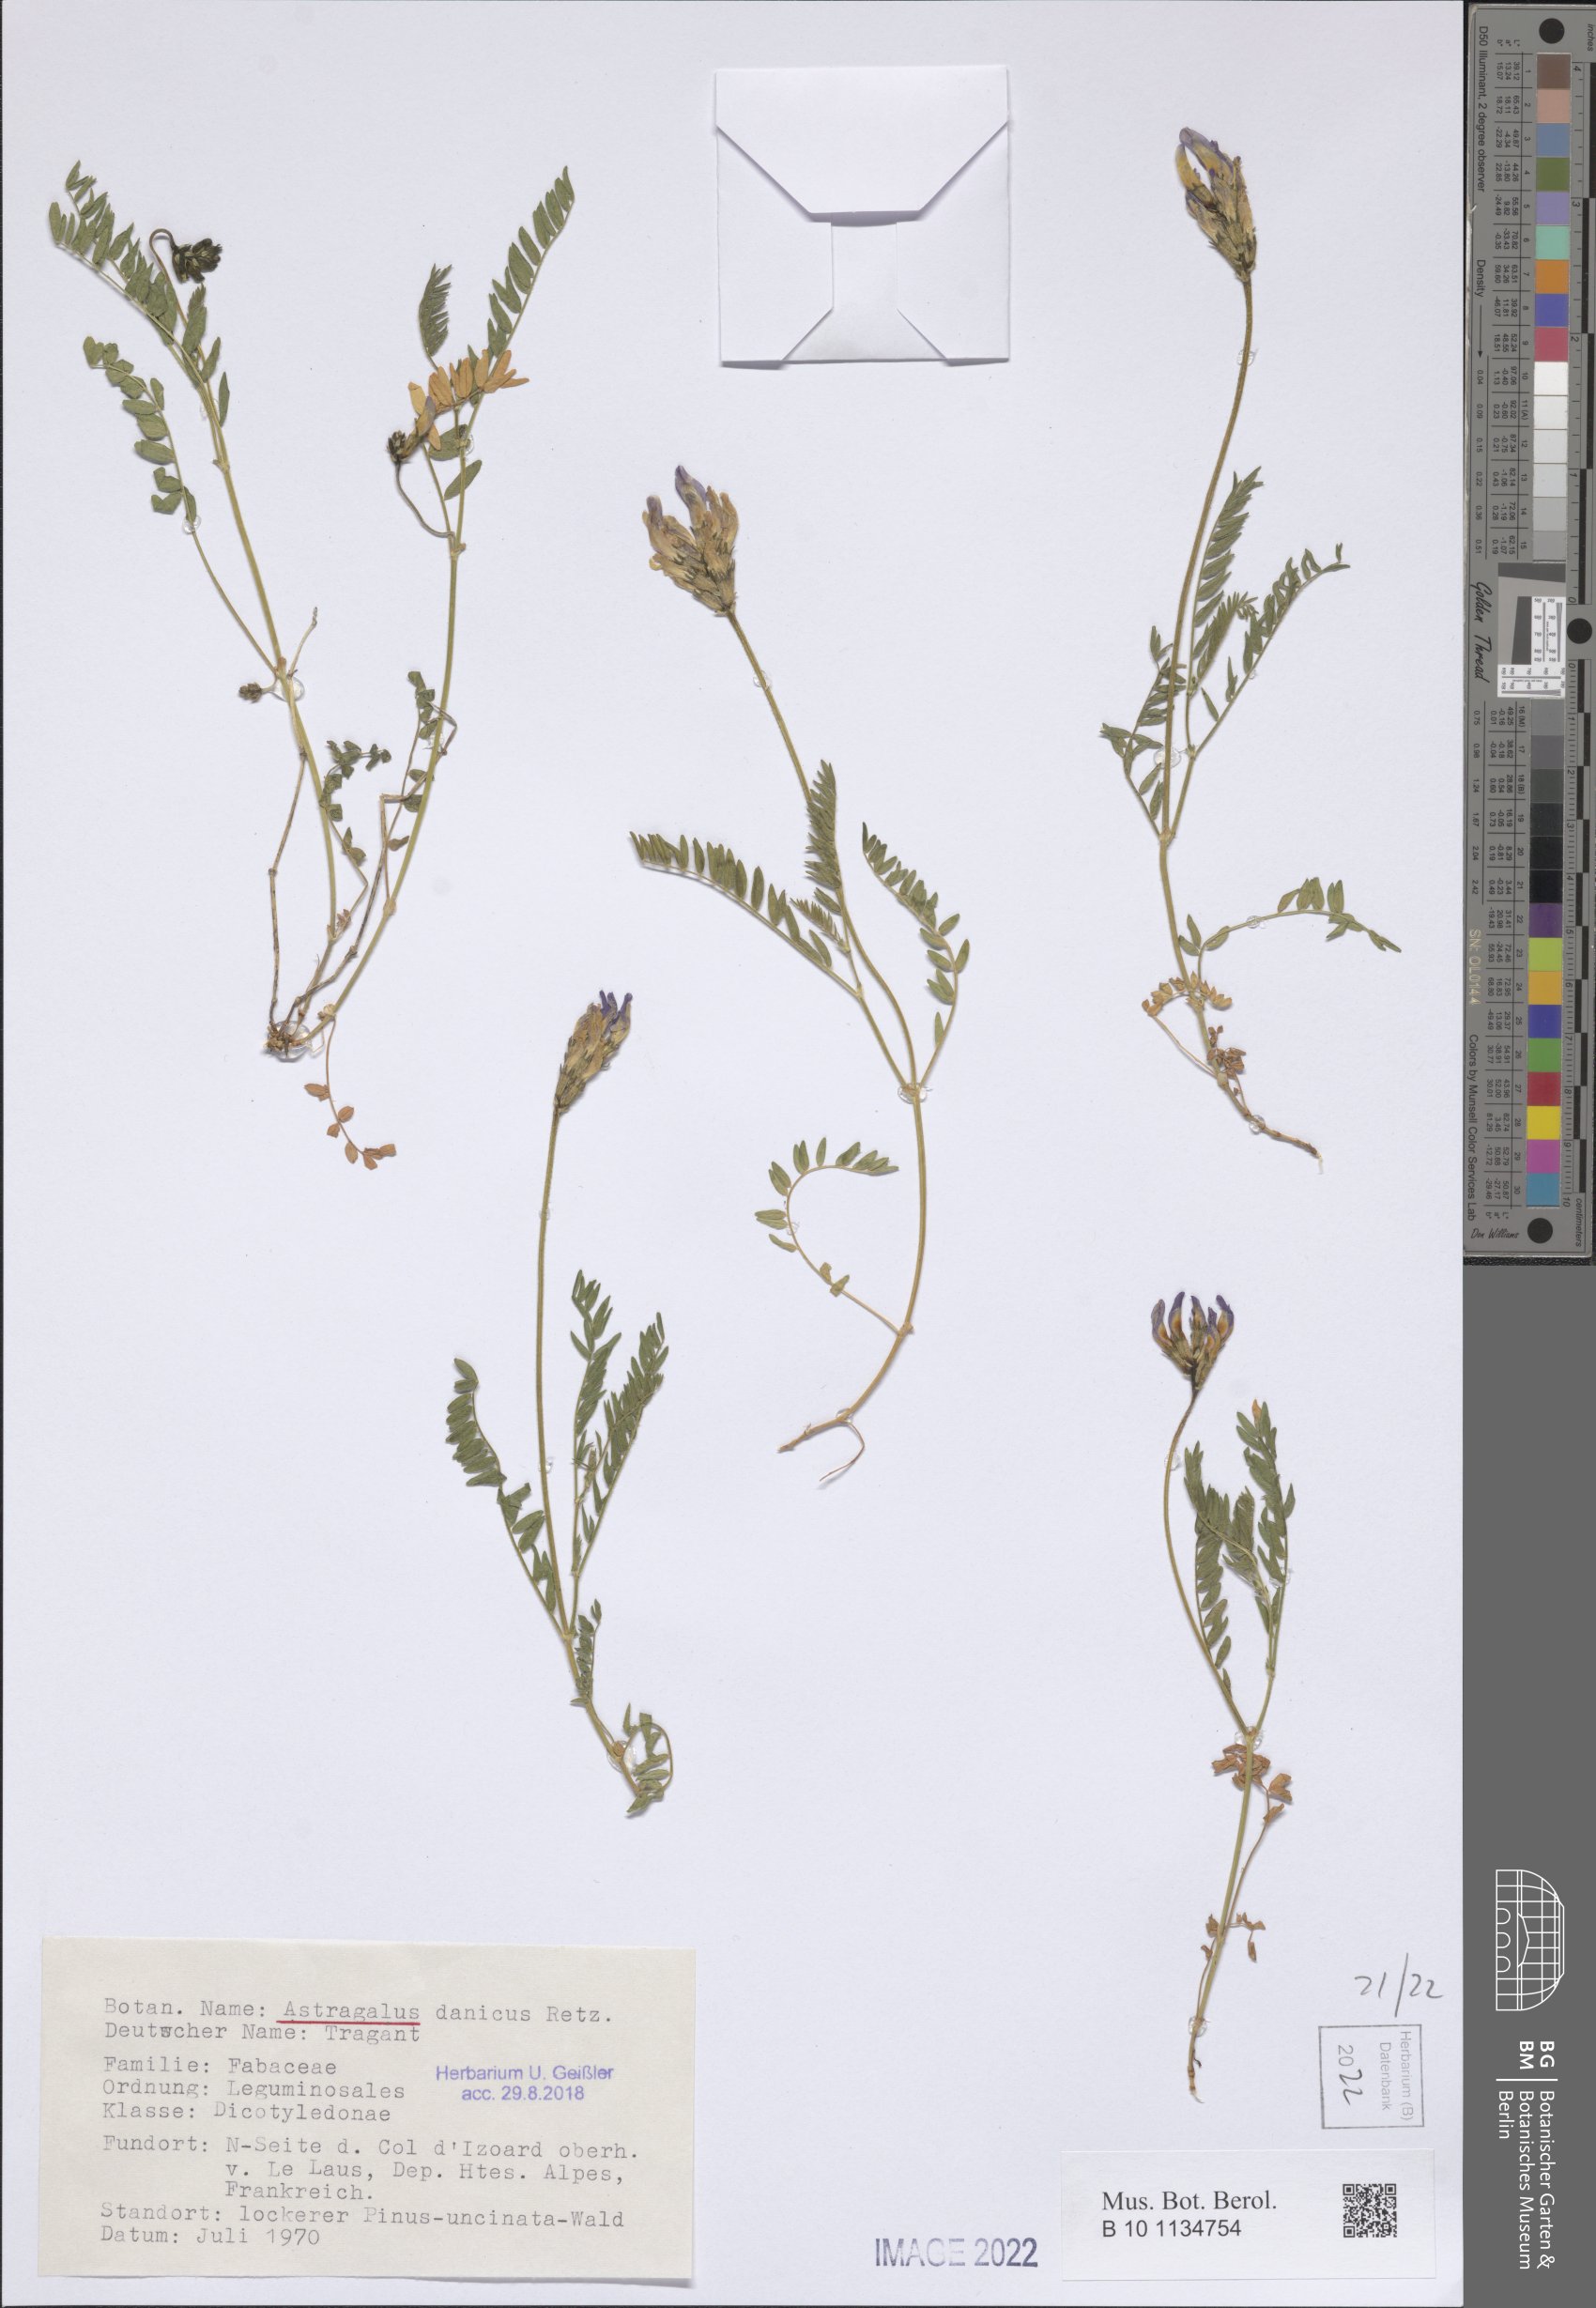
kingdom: Plantae
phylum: Tracheophyta
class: Magnoliopsida
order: Fabales
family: Fabaceae
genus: Astragalus
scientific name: Astragalus danicus
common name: Purple milk-vetch
